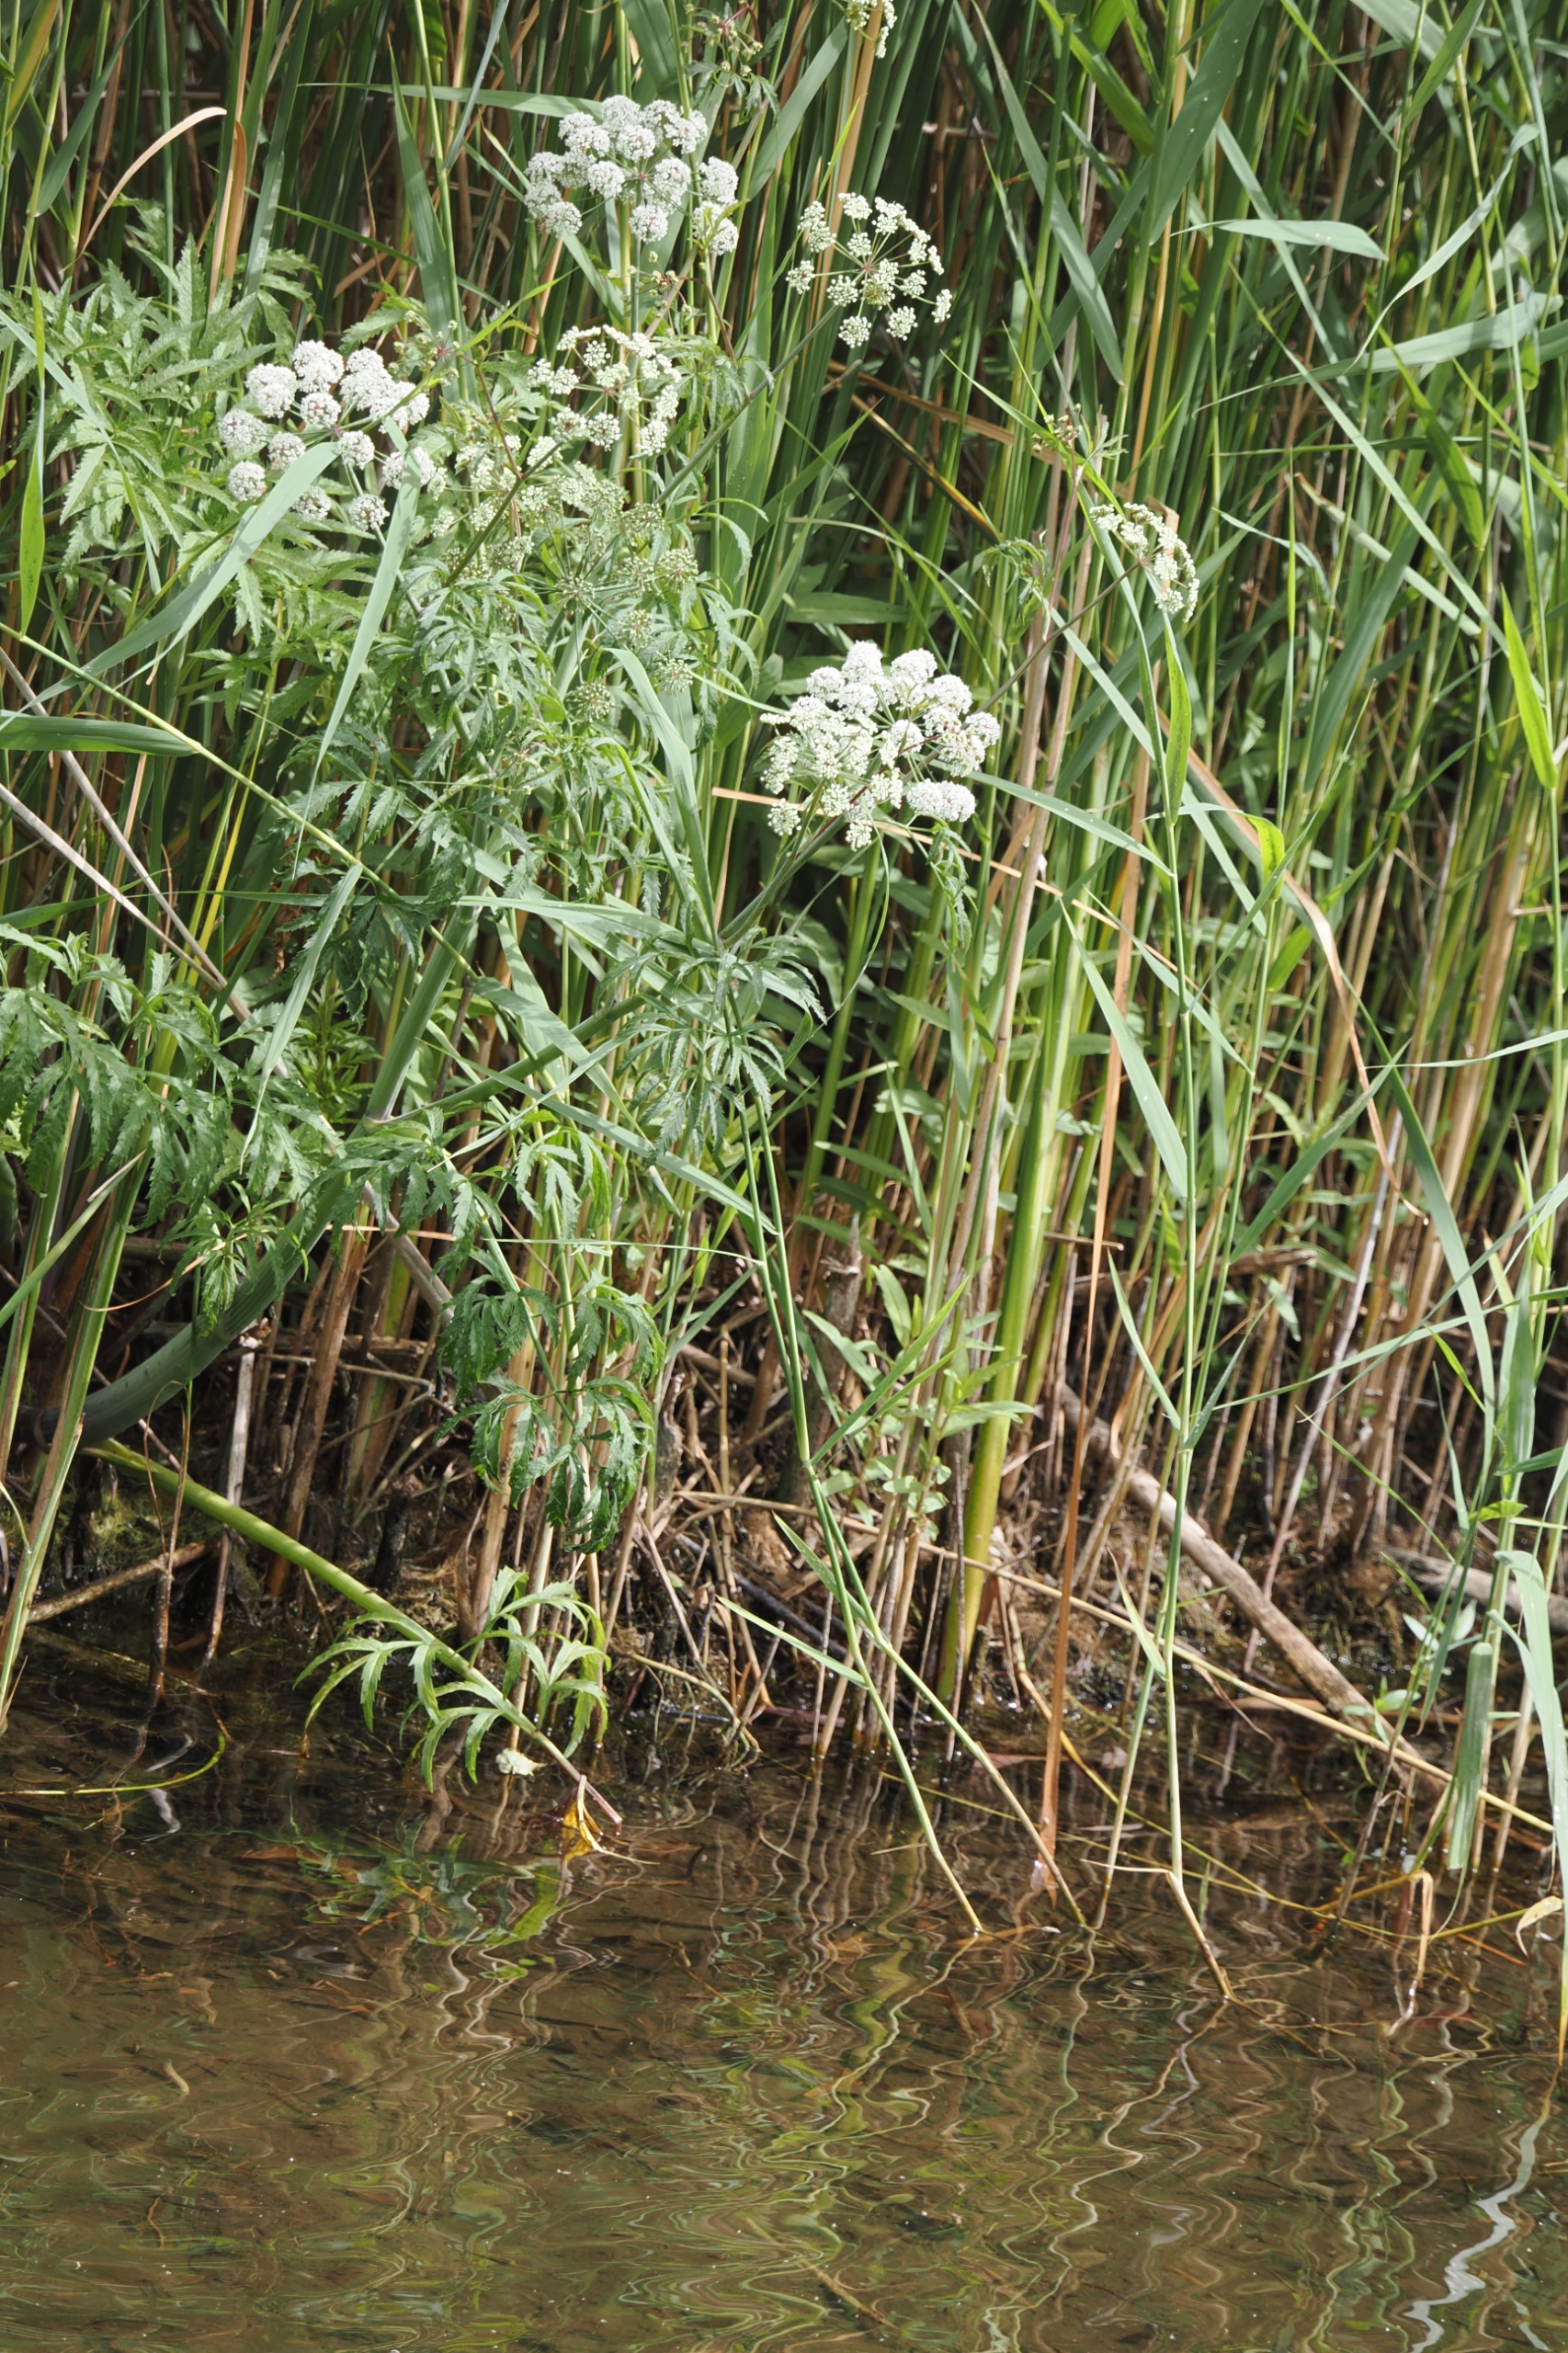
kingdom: Plantae
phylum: Tracheophyta
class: Magnoliopsida
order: Apiales
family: Apiaceae
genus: Cicuta
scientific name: Cicuta virosa
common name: Gifttyde
